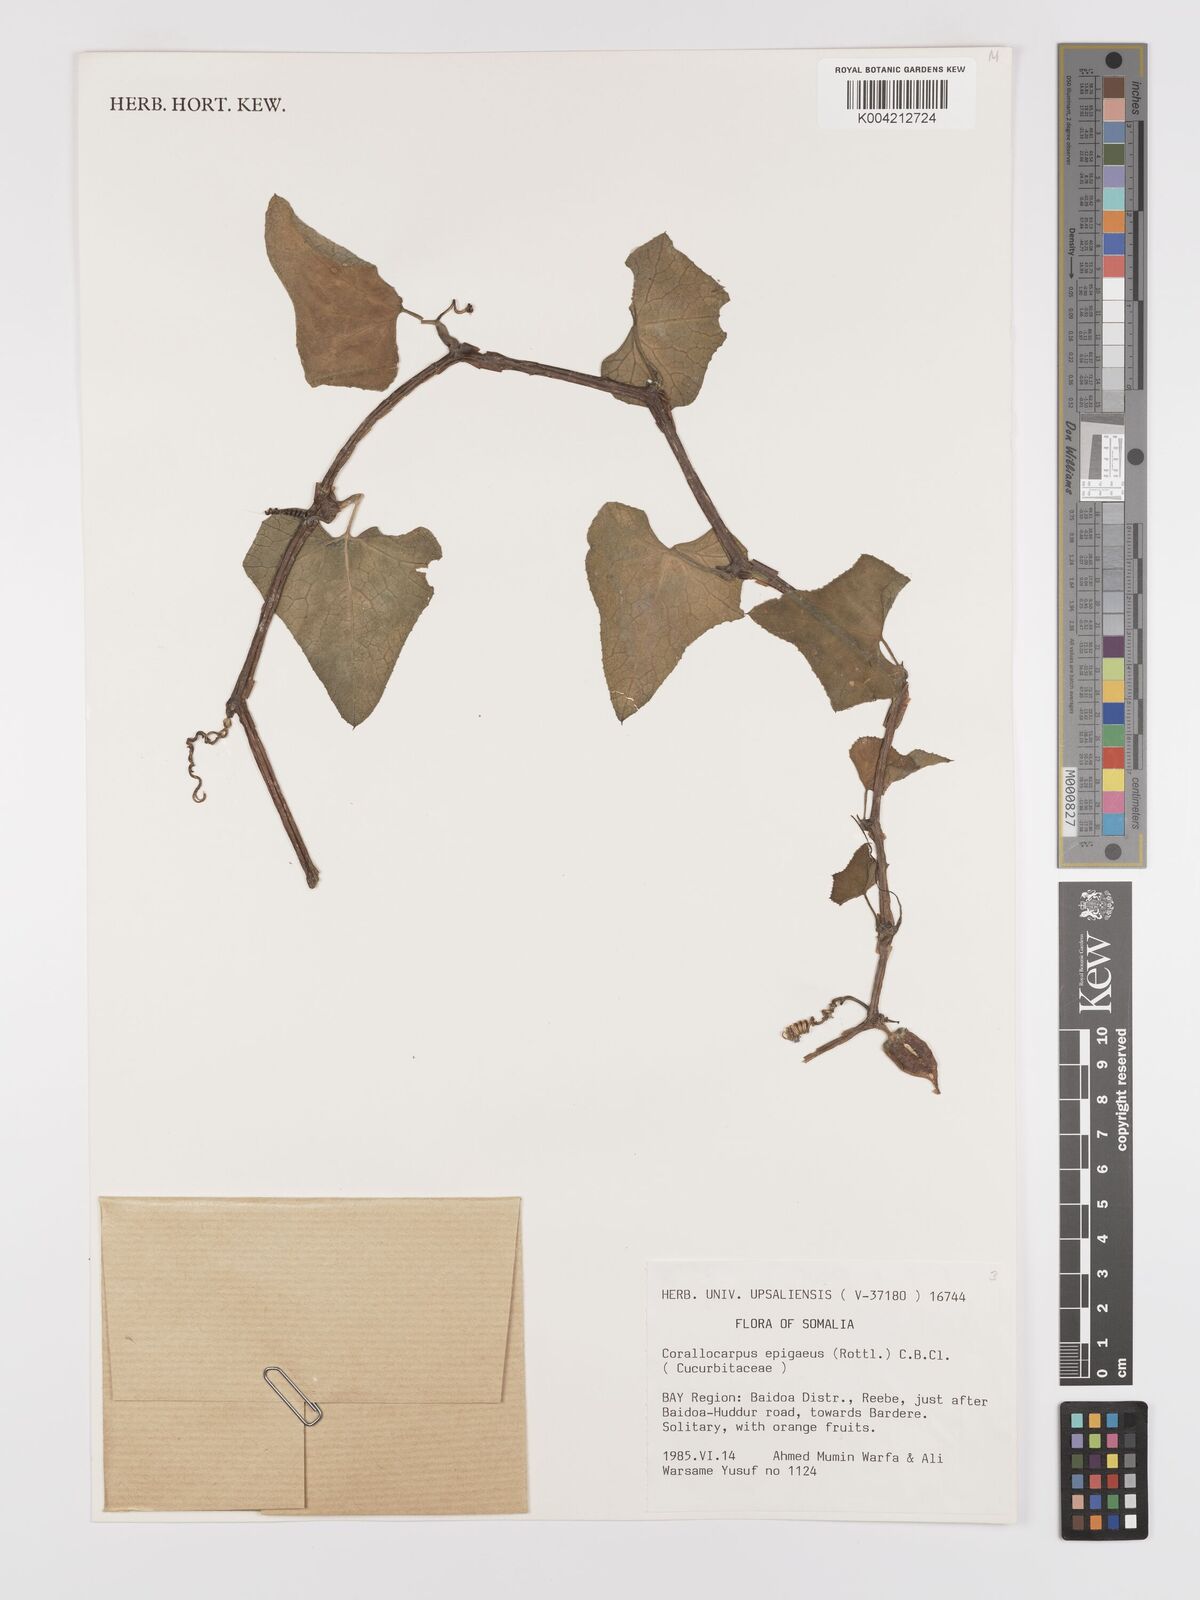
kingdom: Plantae
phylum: Tracheophyta
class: Magnoliopsida
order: Cucurbitales
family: Cucurbitaceae
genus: Corallocarpus
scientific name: Corallocarpus epigaeus
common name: Indian bryonia
